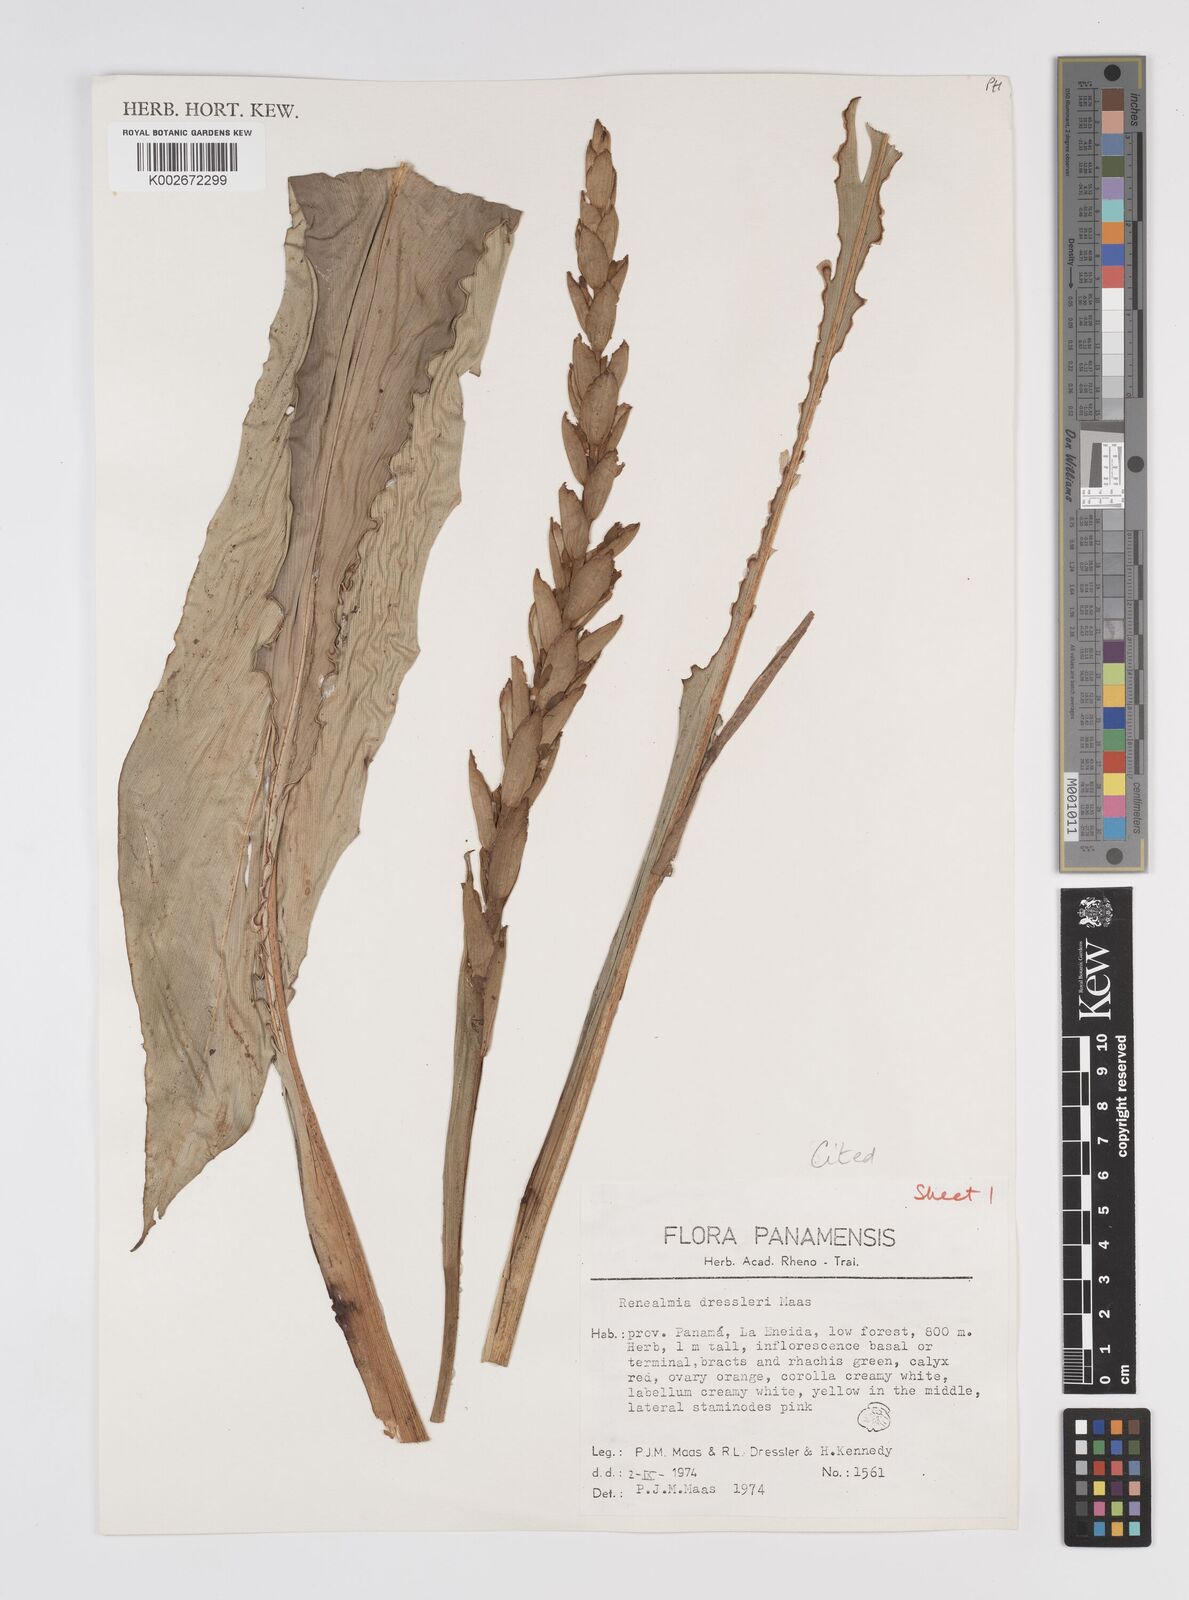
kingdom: Plantae
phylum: Tracheophyta
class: Liliopsida
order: Zingiberales
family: Zingiberaceae
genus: Renealmia
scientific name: Renealmia dressleri
